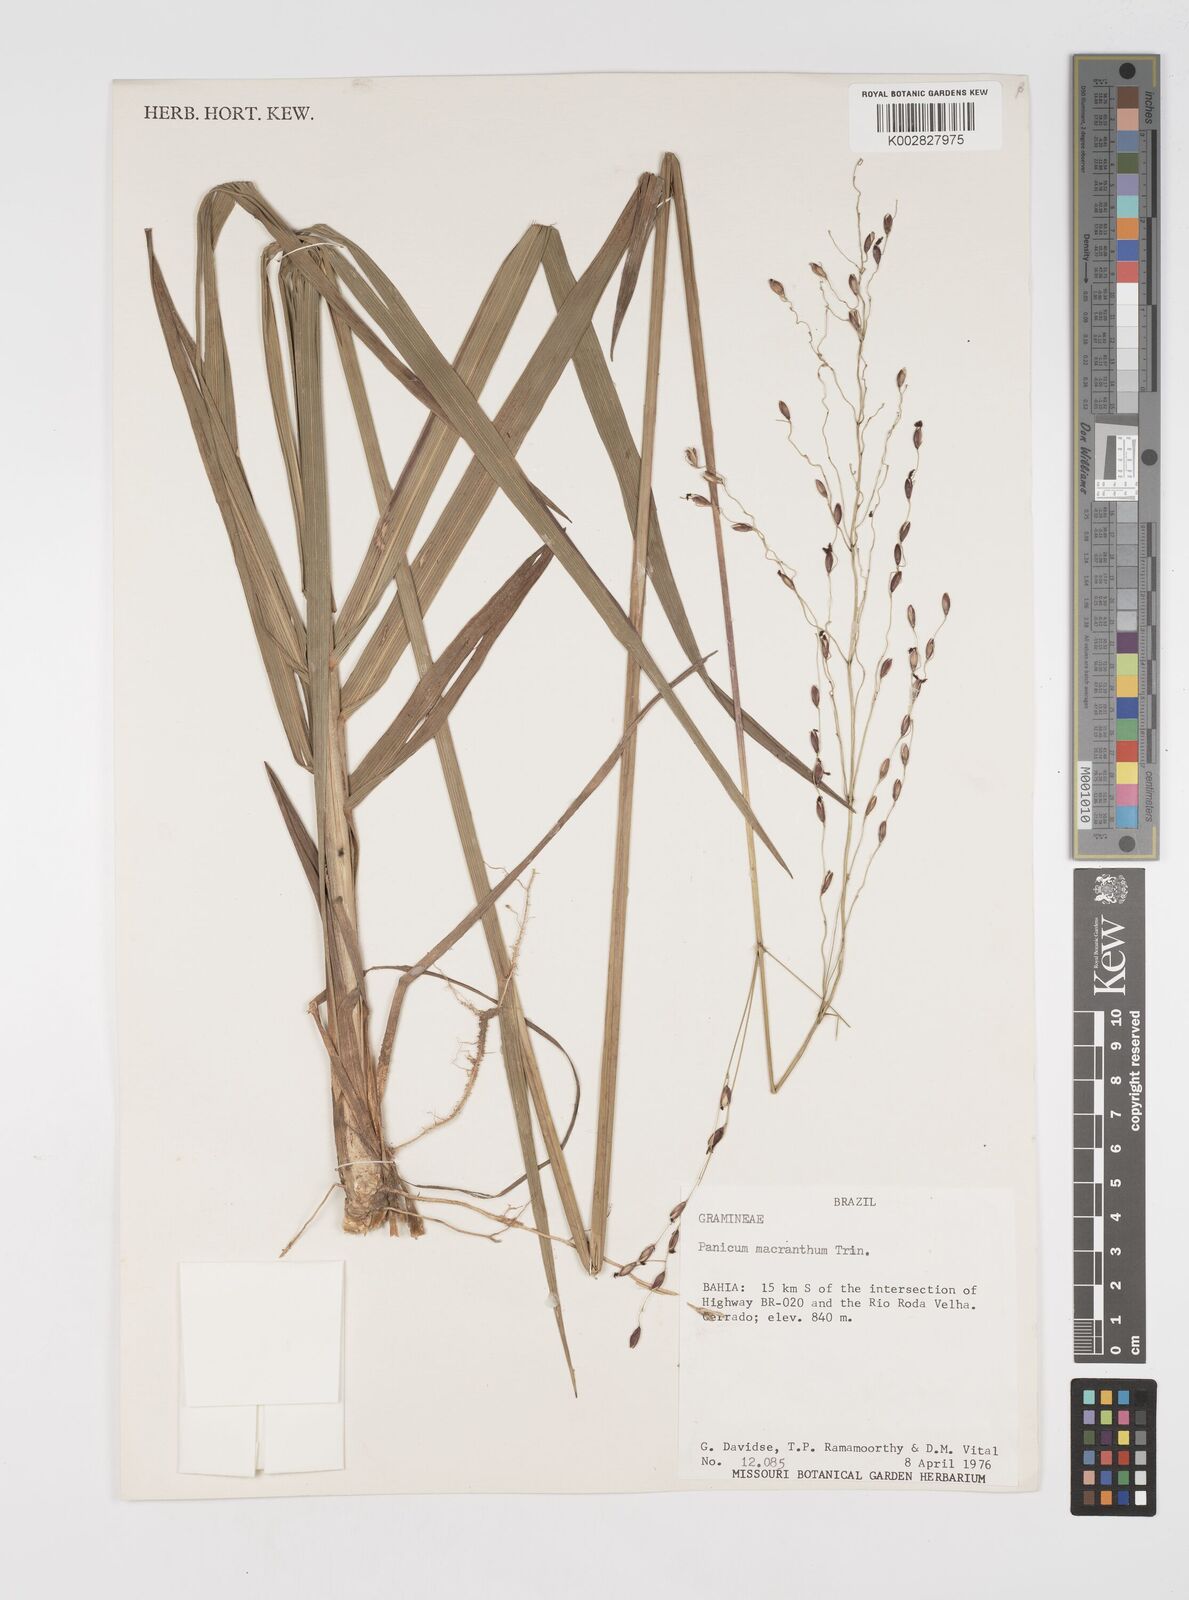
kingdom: Plantae
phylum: Tracheophyta
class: Liliopsida
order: Poales
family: Poaceae
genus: Oncorachis
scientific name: Oncorachis ramosa
